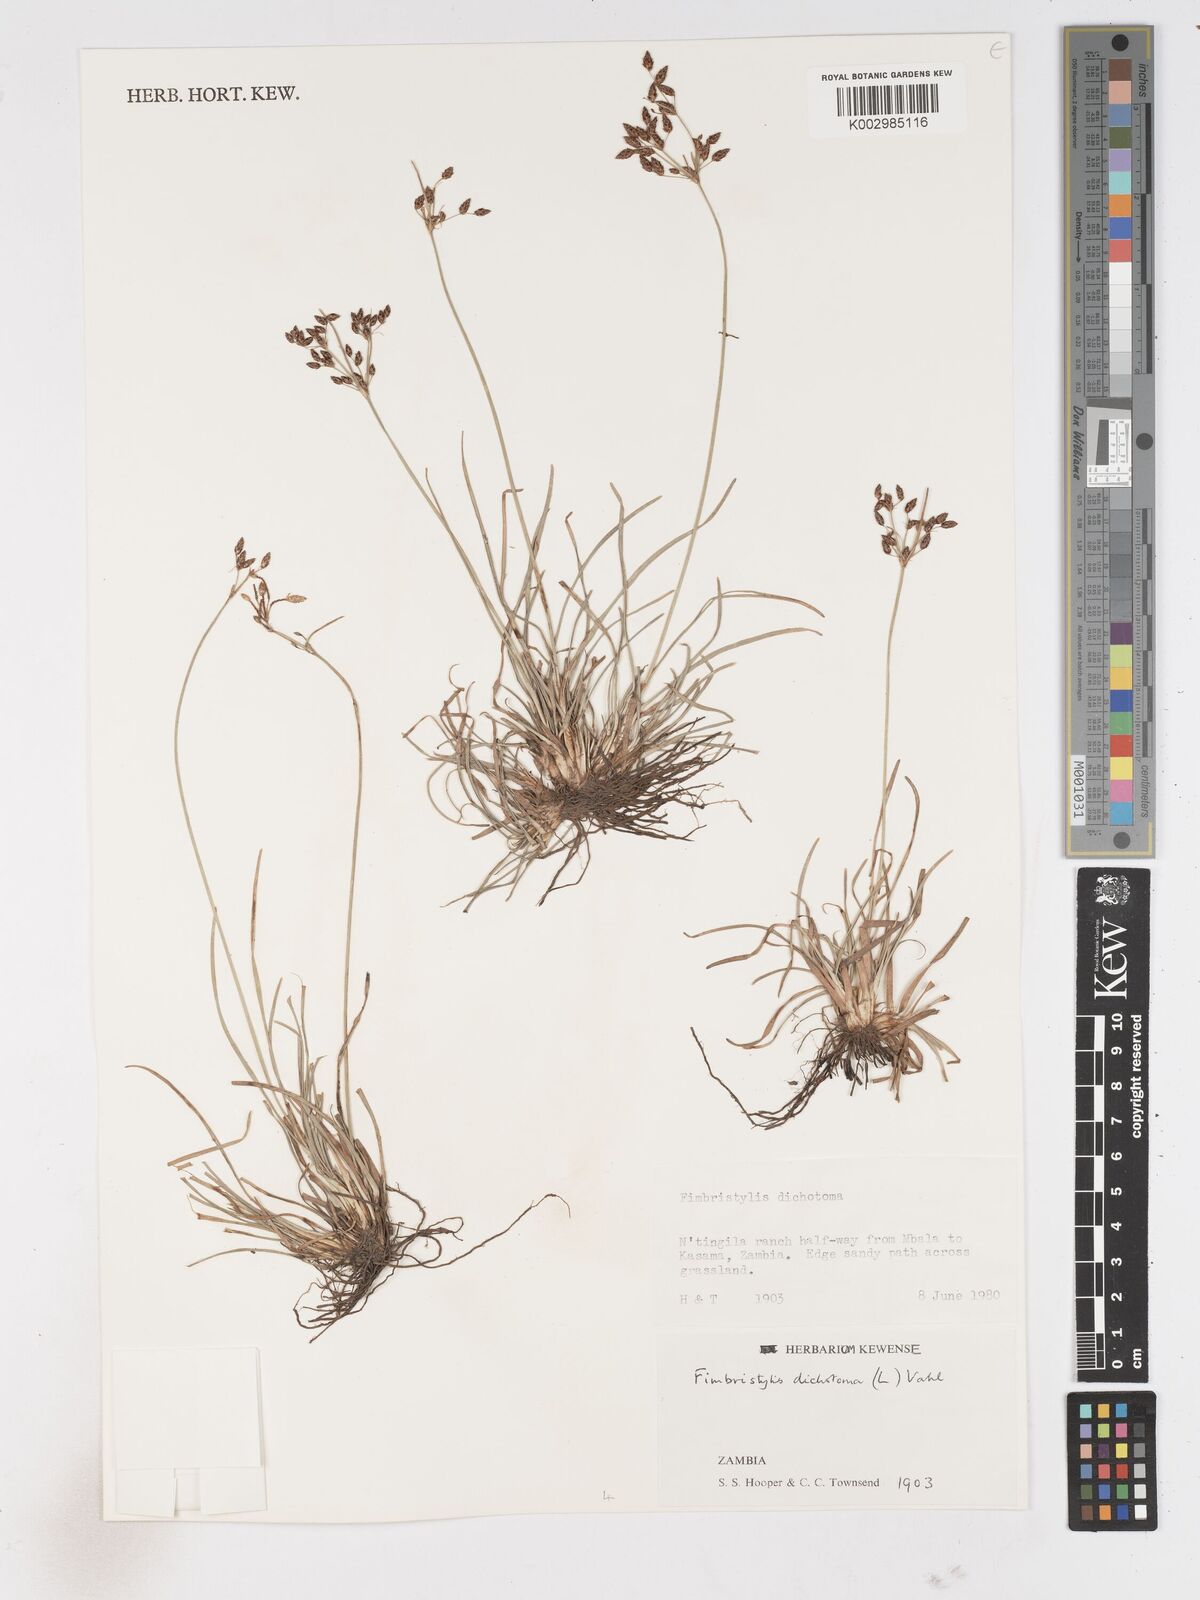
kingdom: Plantae
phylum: Tracheophyta
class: Liliopsida
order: Poales
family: Cyperaceae
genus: Fimbristylis
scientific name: Fimbristylis dichotoma
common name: Forked fimbry
